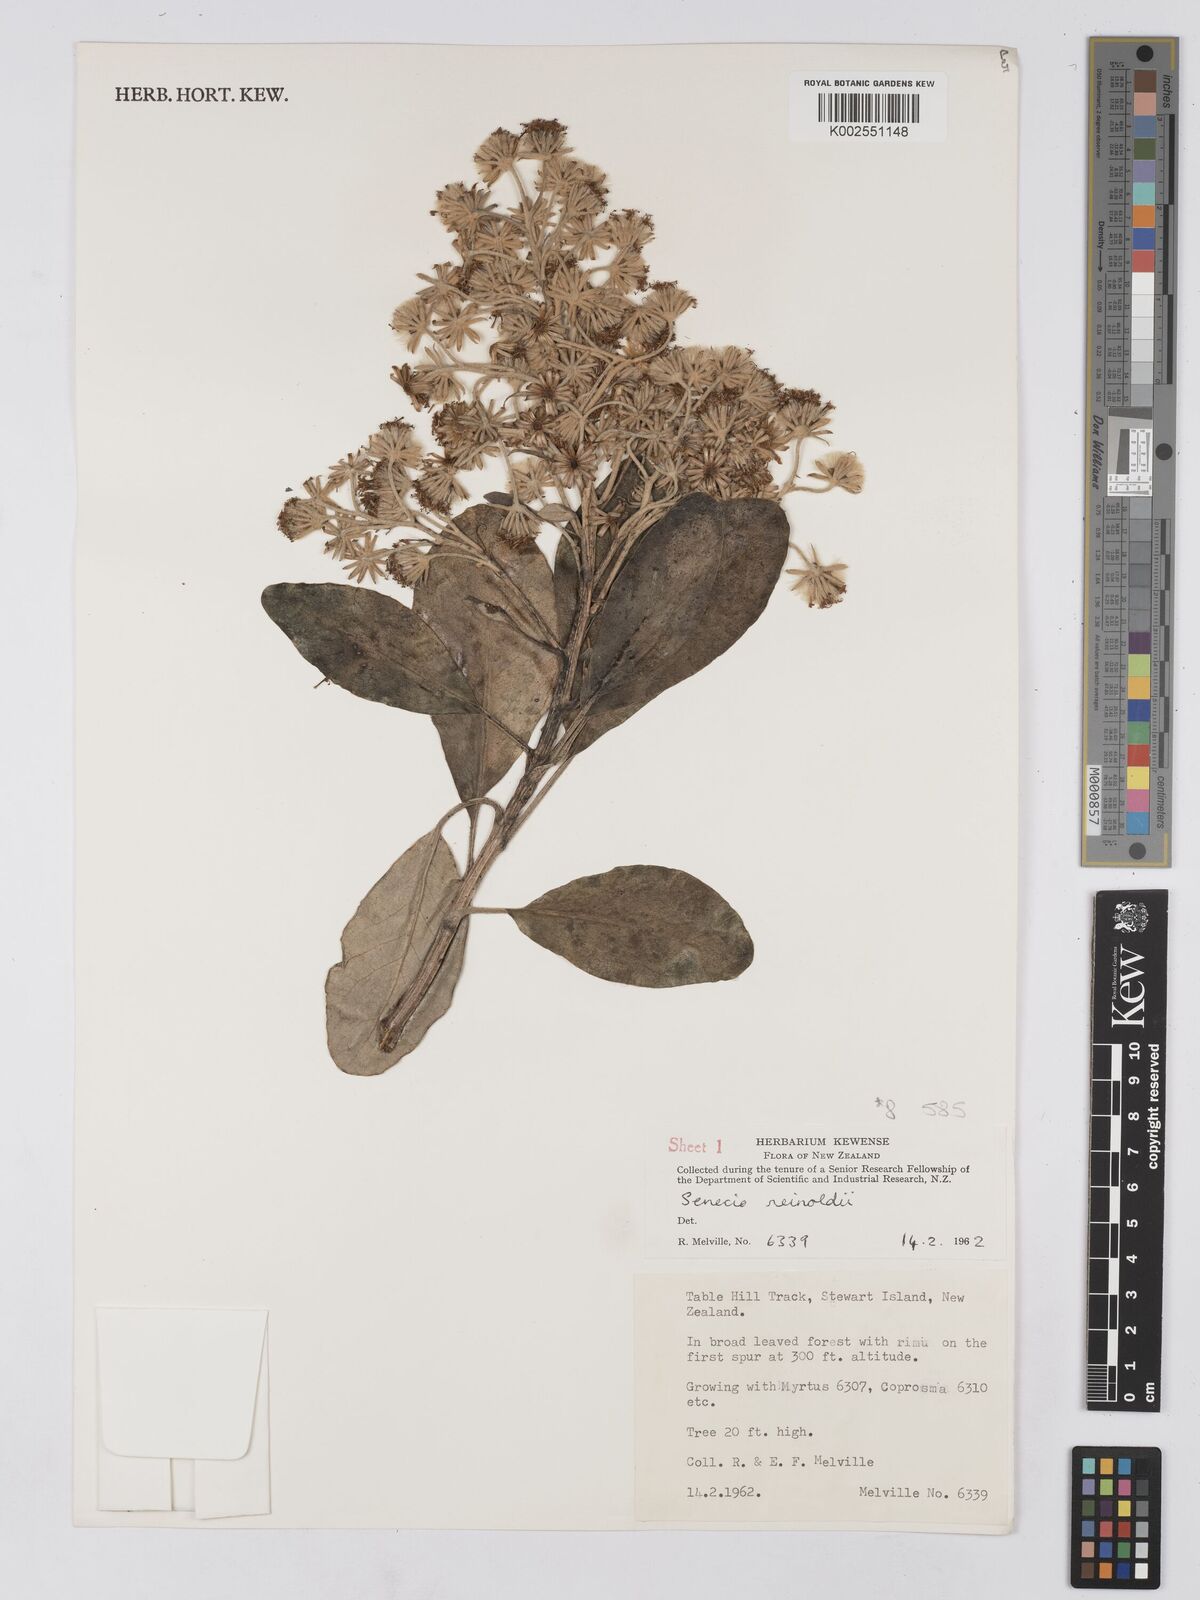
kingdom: Plantae
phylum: Tracheophyta
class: Magnoliopsida
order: Asterales
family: Asteraceae
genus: Brachyglottis
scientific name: Brachyglottis rotundifolia
